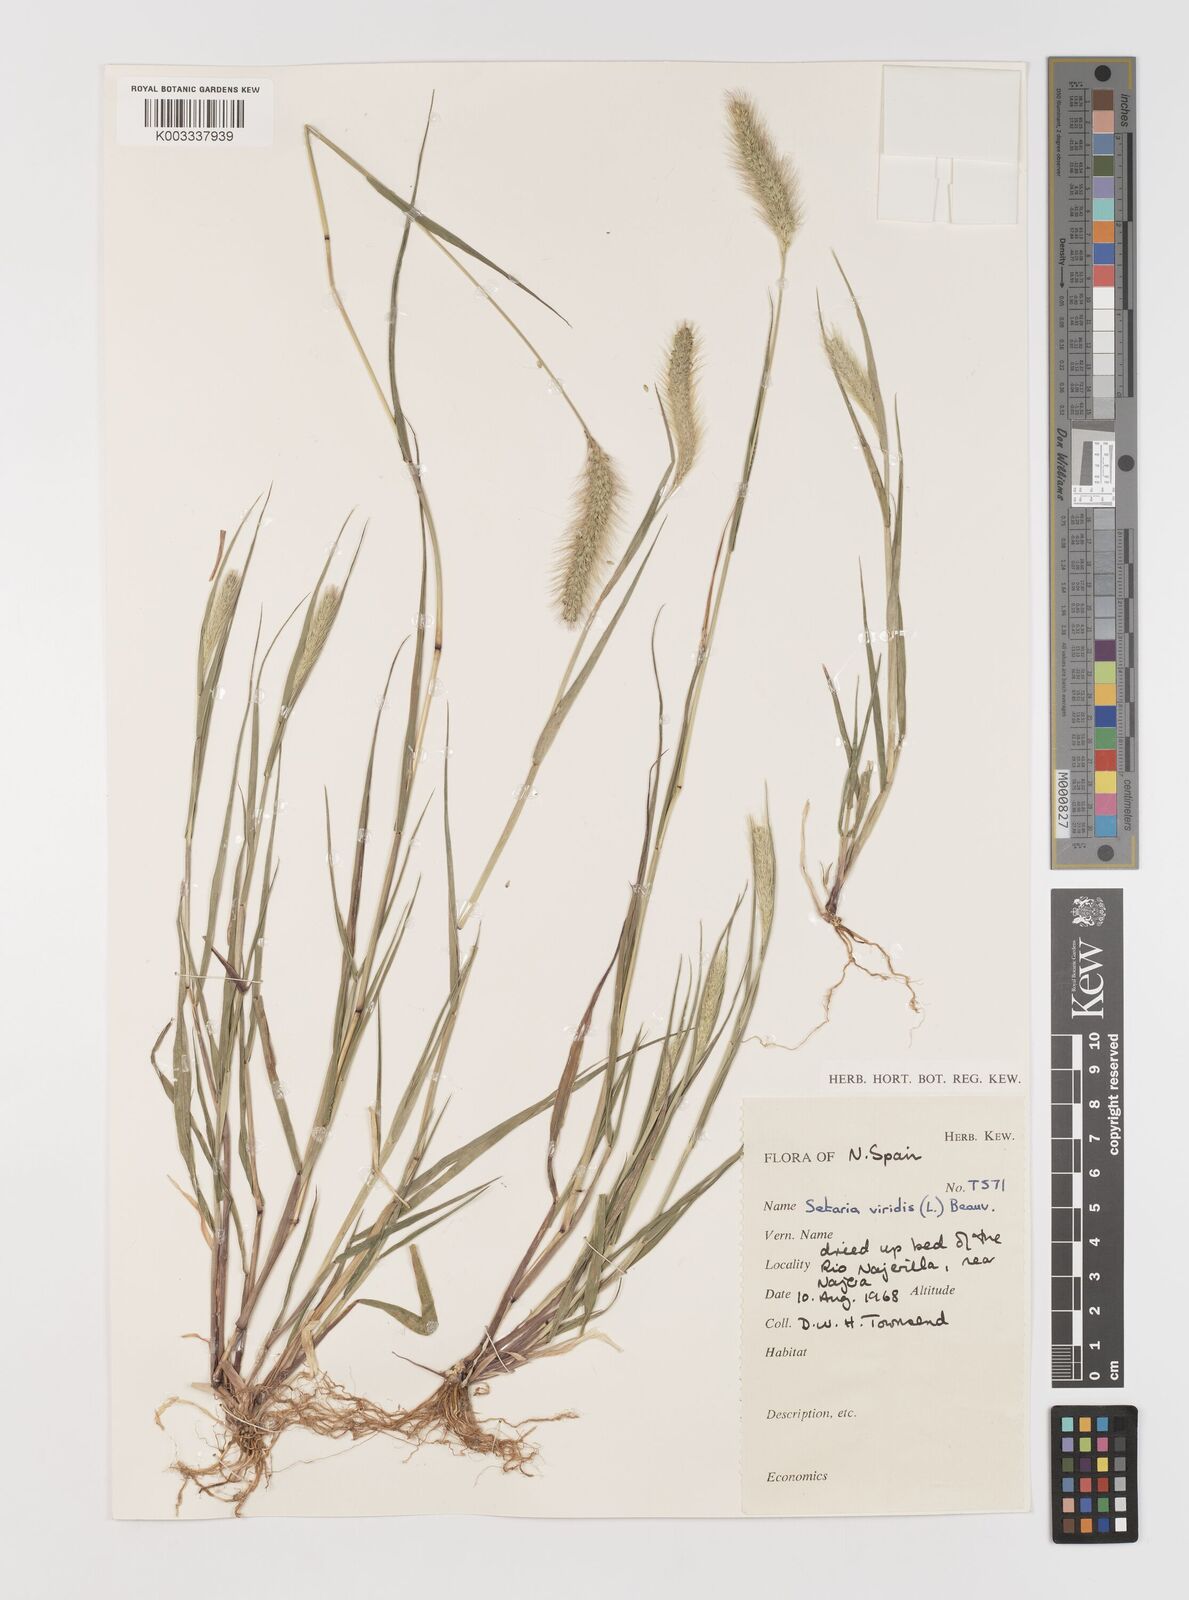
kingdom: Plantae
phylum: Tracheophyta
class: Liliopsida
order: Poales
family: Poaceae
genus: Setaria
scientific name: Setaria viridis
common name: Green bristlegrass
